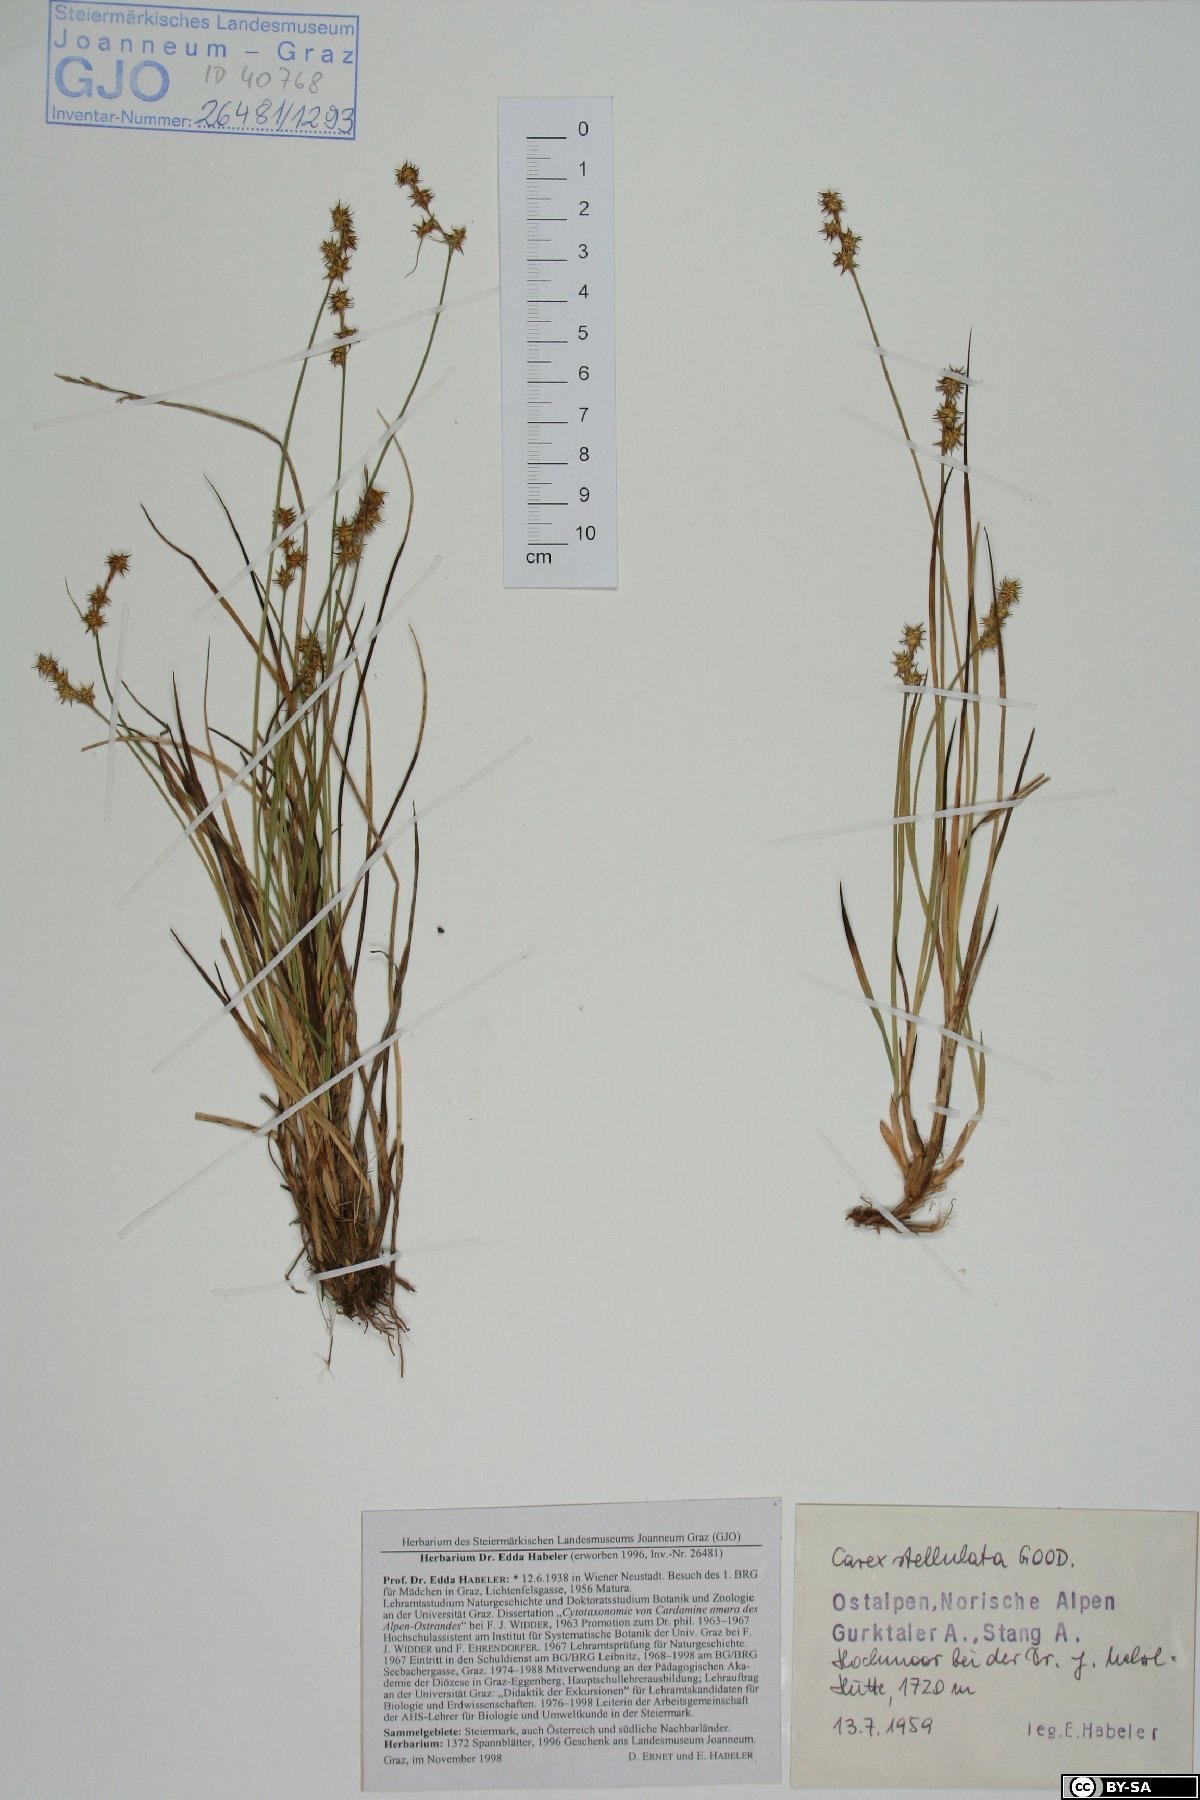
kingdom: Plantae
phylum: Tracheophyta
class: Liliopsida
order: Poales
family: Cyperaceae
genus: Carex
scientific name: Carex echinata
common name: Star sedge
